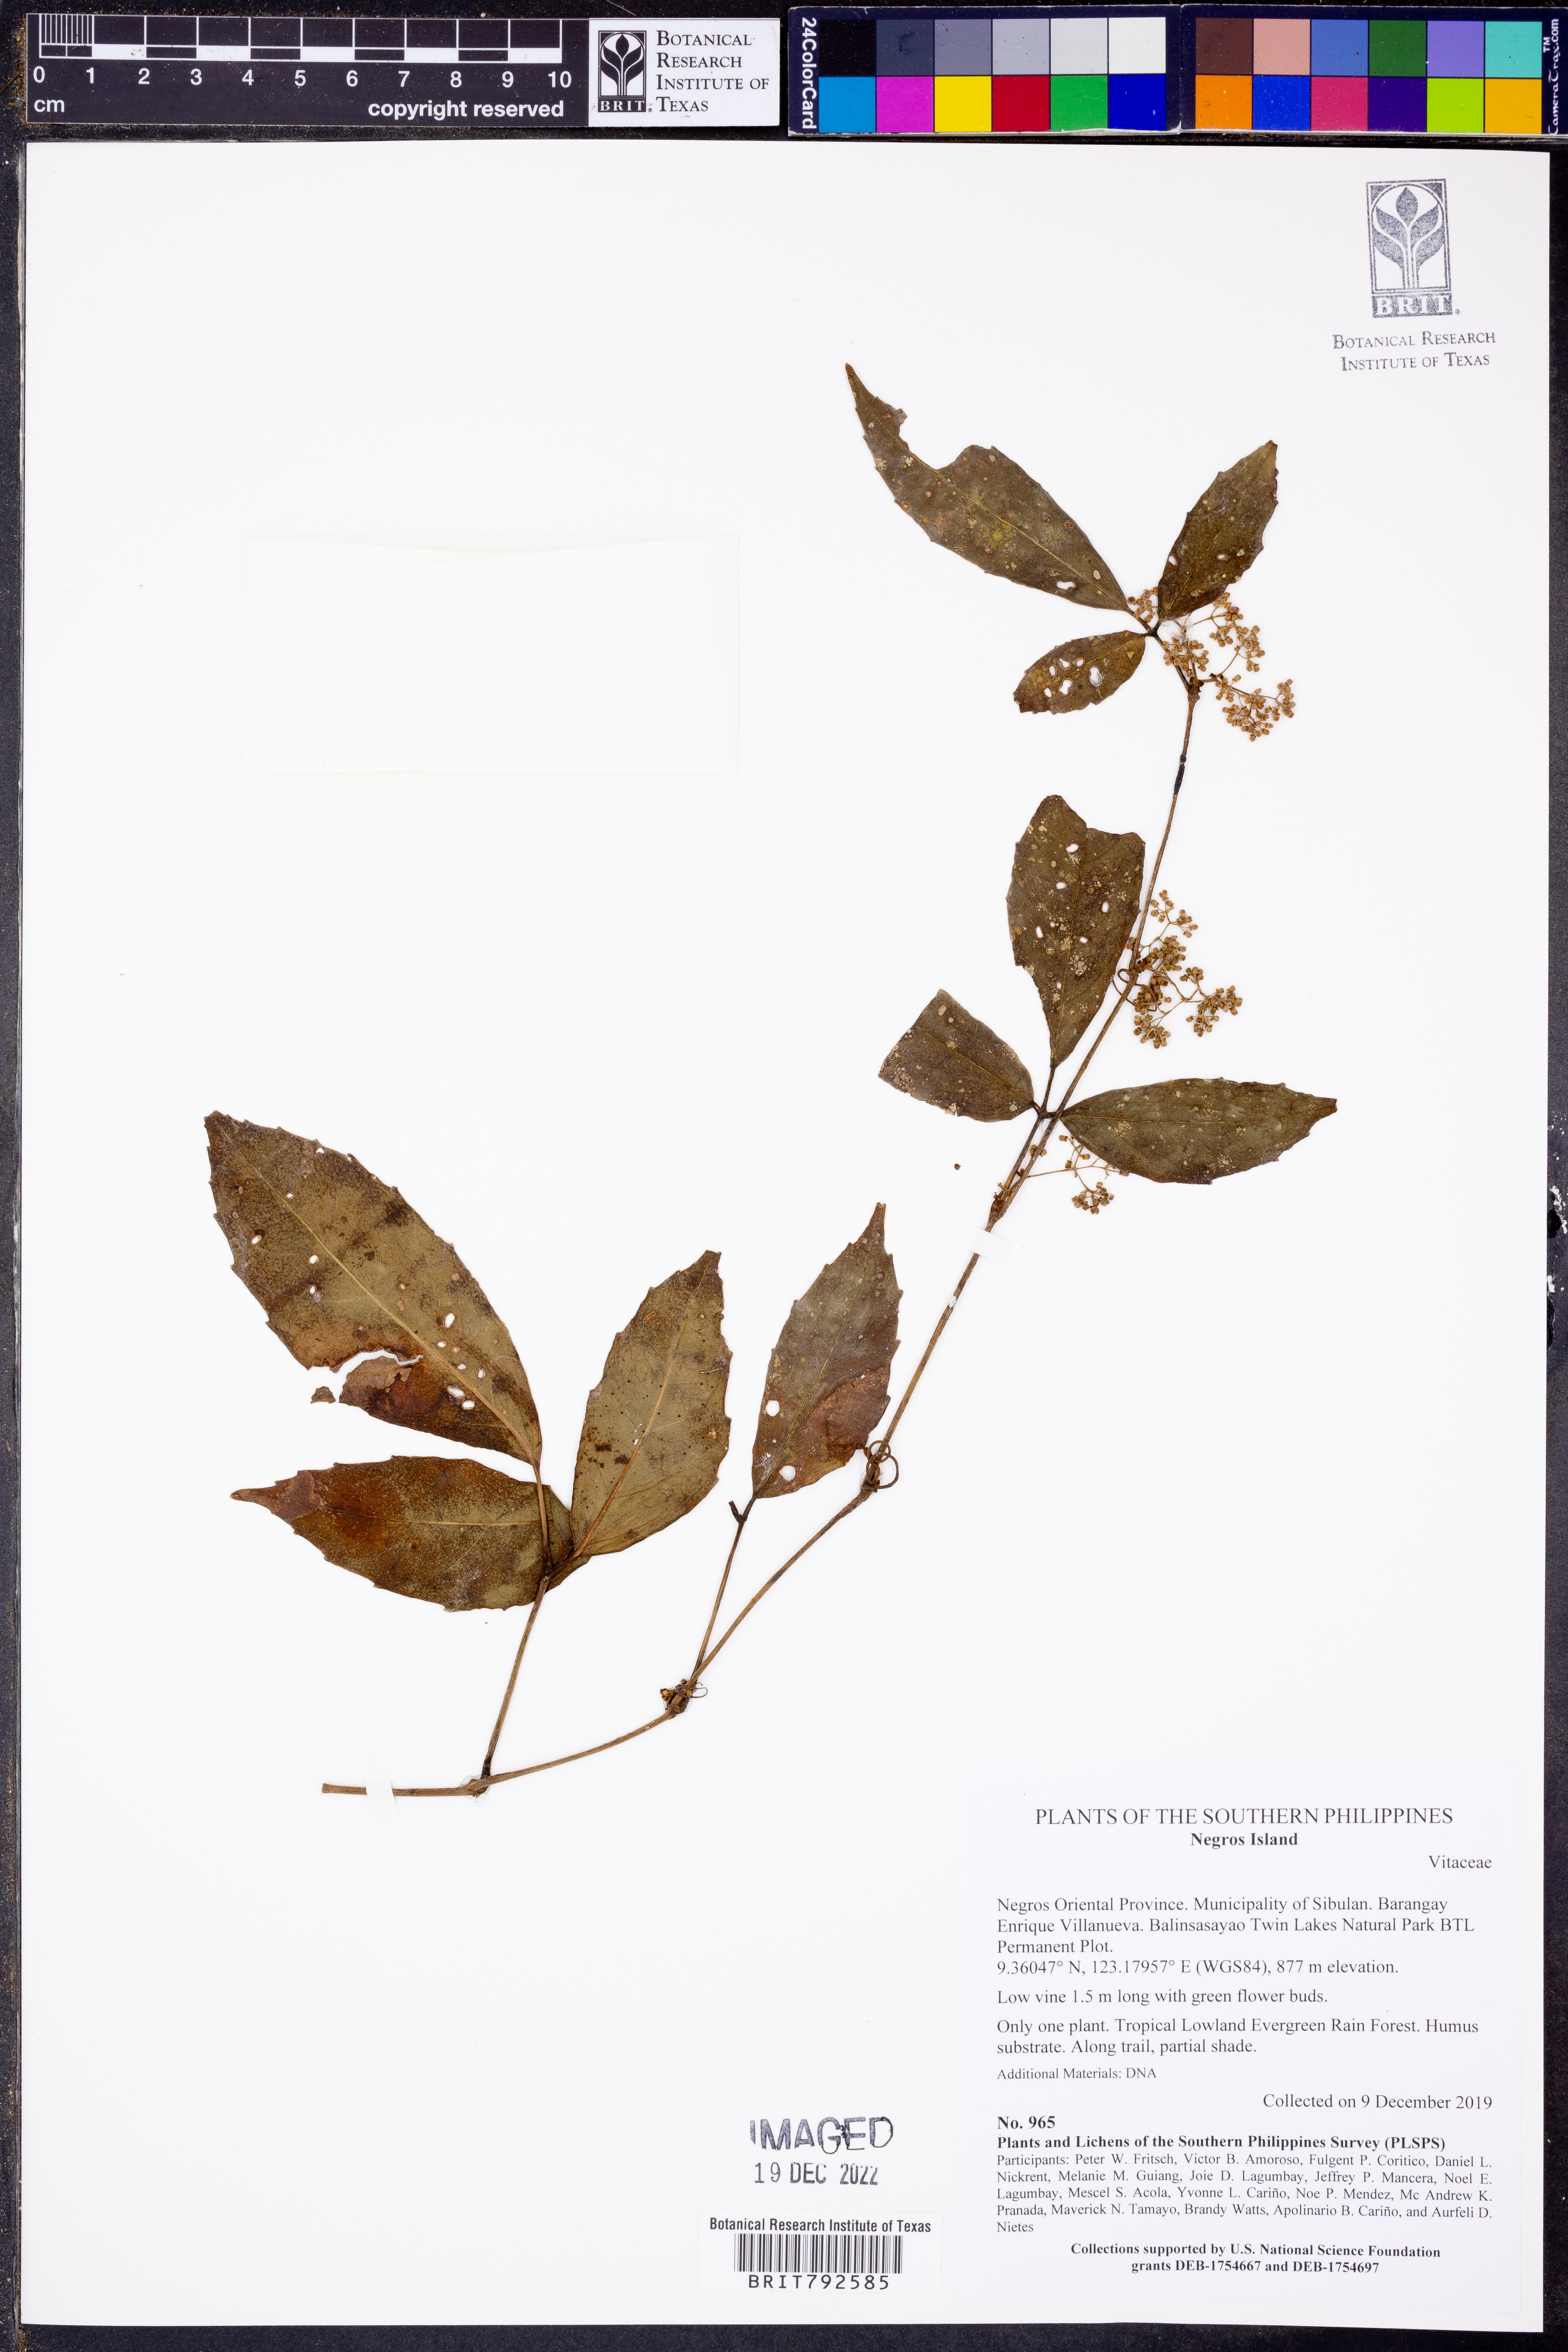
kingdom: Plantae
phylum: Tracheophyta
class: Magnoliopsida
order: Vitales
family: Vitaceae
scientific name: Vitaceae
